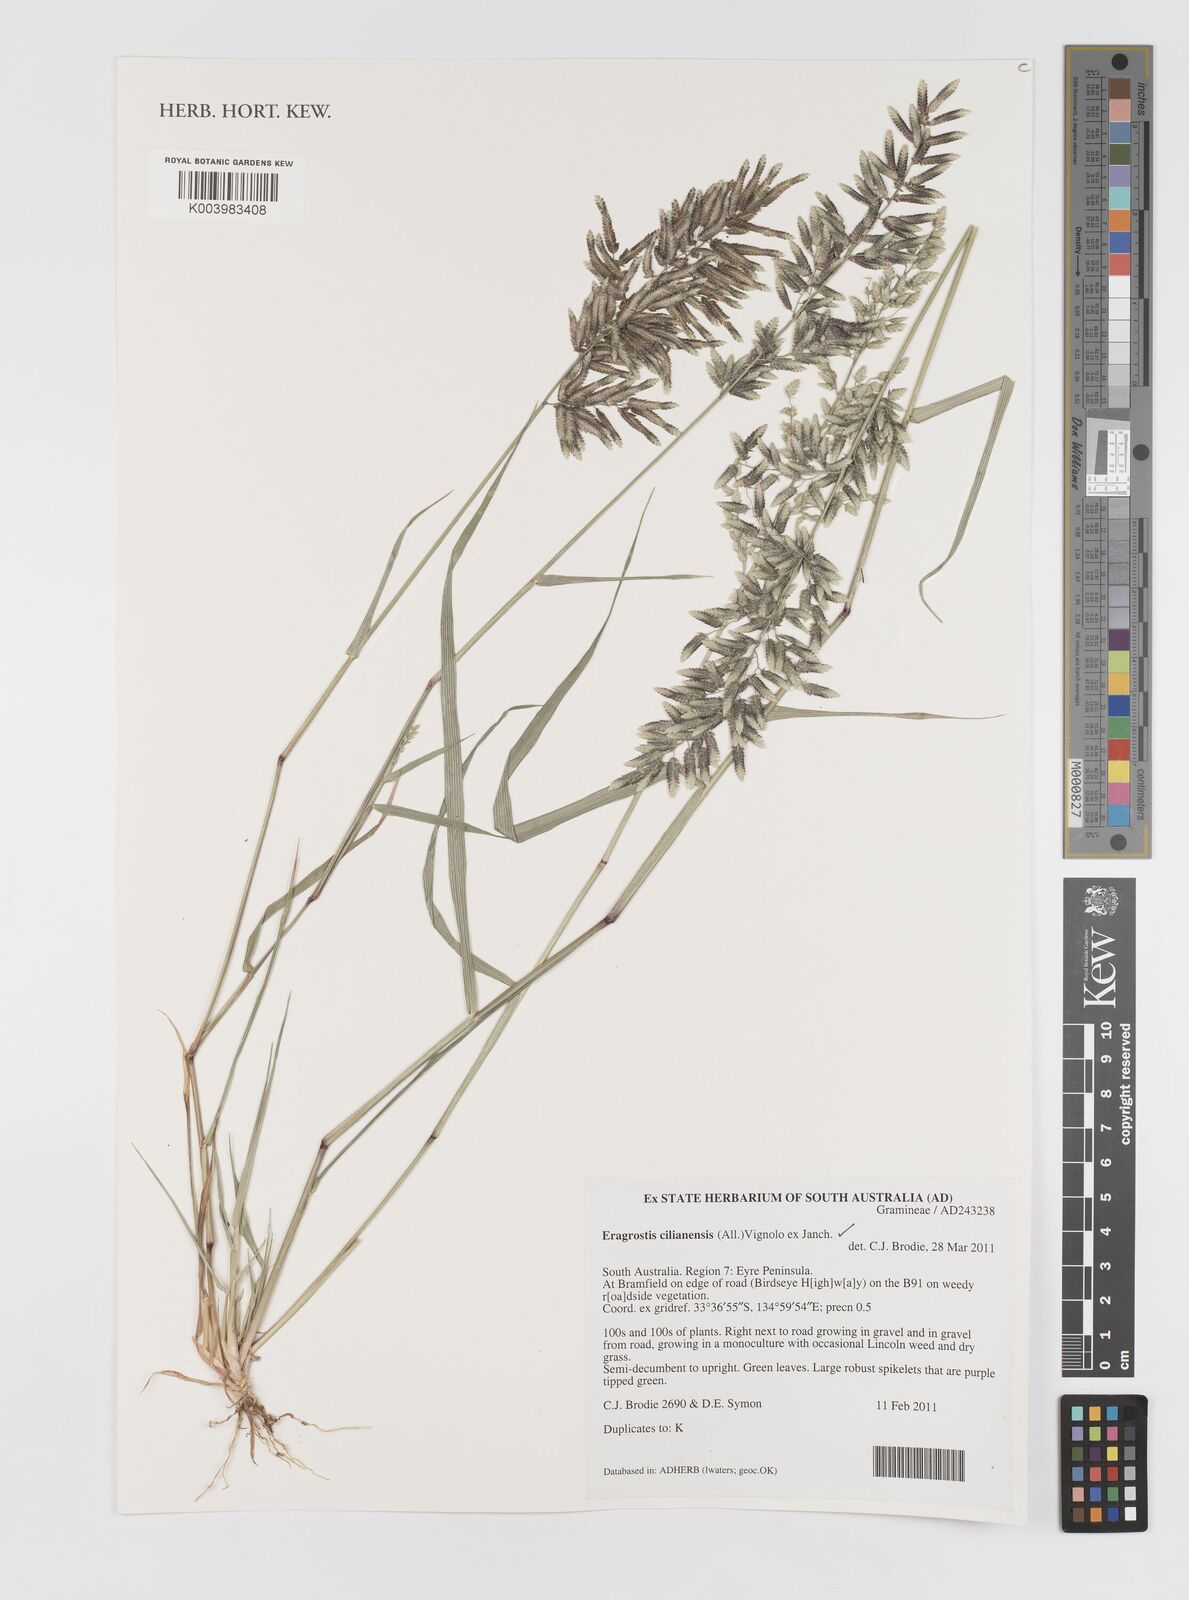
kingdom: Plantae
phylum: Tracheophyta
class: Liliopsida
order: Poales
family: Poaceae
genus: Eragrostis
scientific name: Eragrostis cilianensis
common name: Stinkgrass
